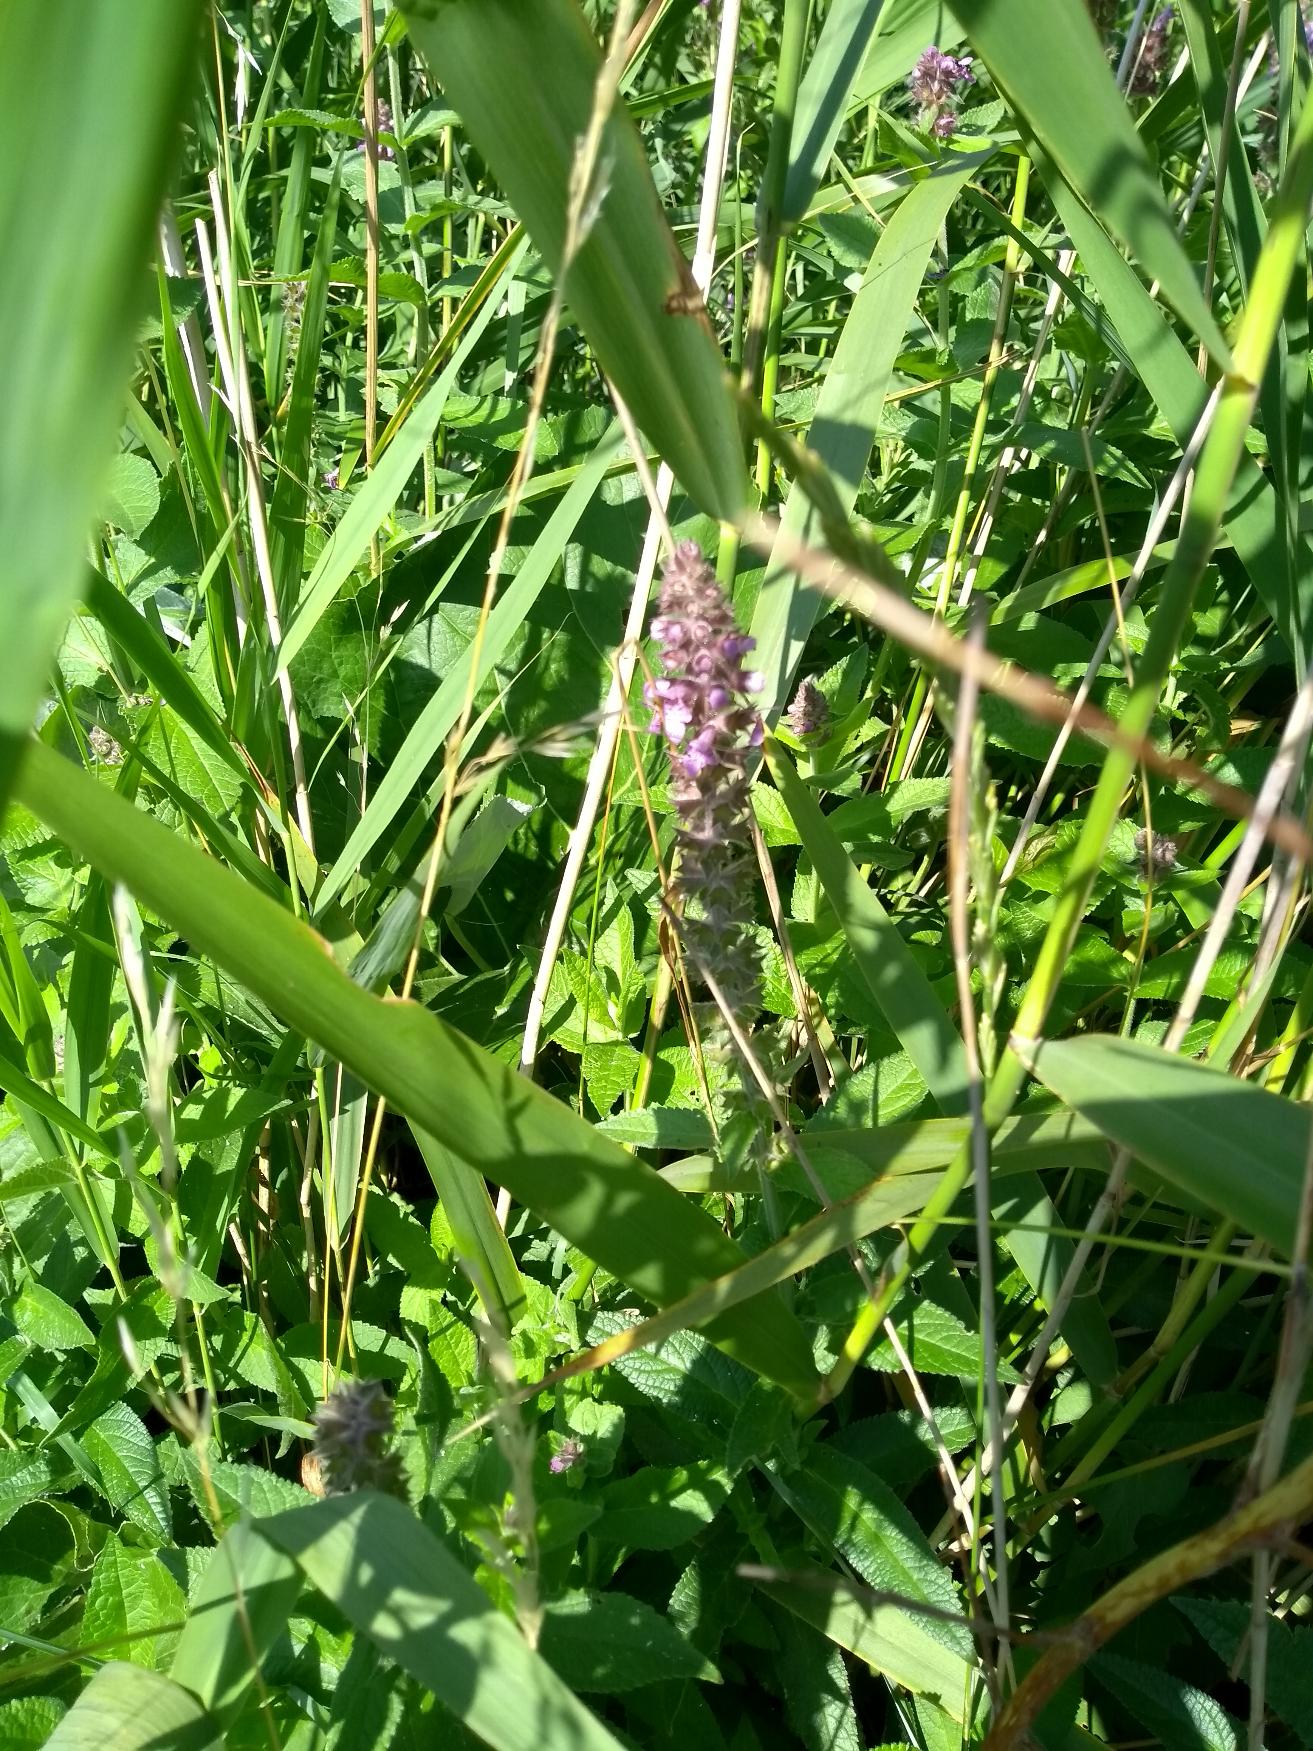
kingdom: Plantae
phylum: Tracheophyta
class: Magnoliopsida
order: Lamiales
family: Lamiaceae
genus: Stachys
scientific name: Stachys palustris
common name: Kær-galtetand
